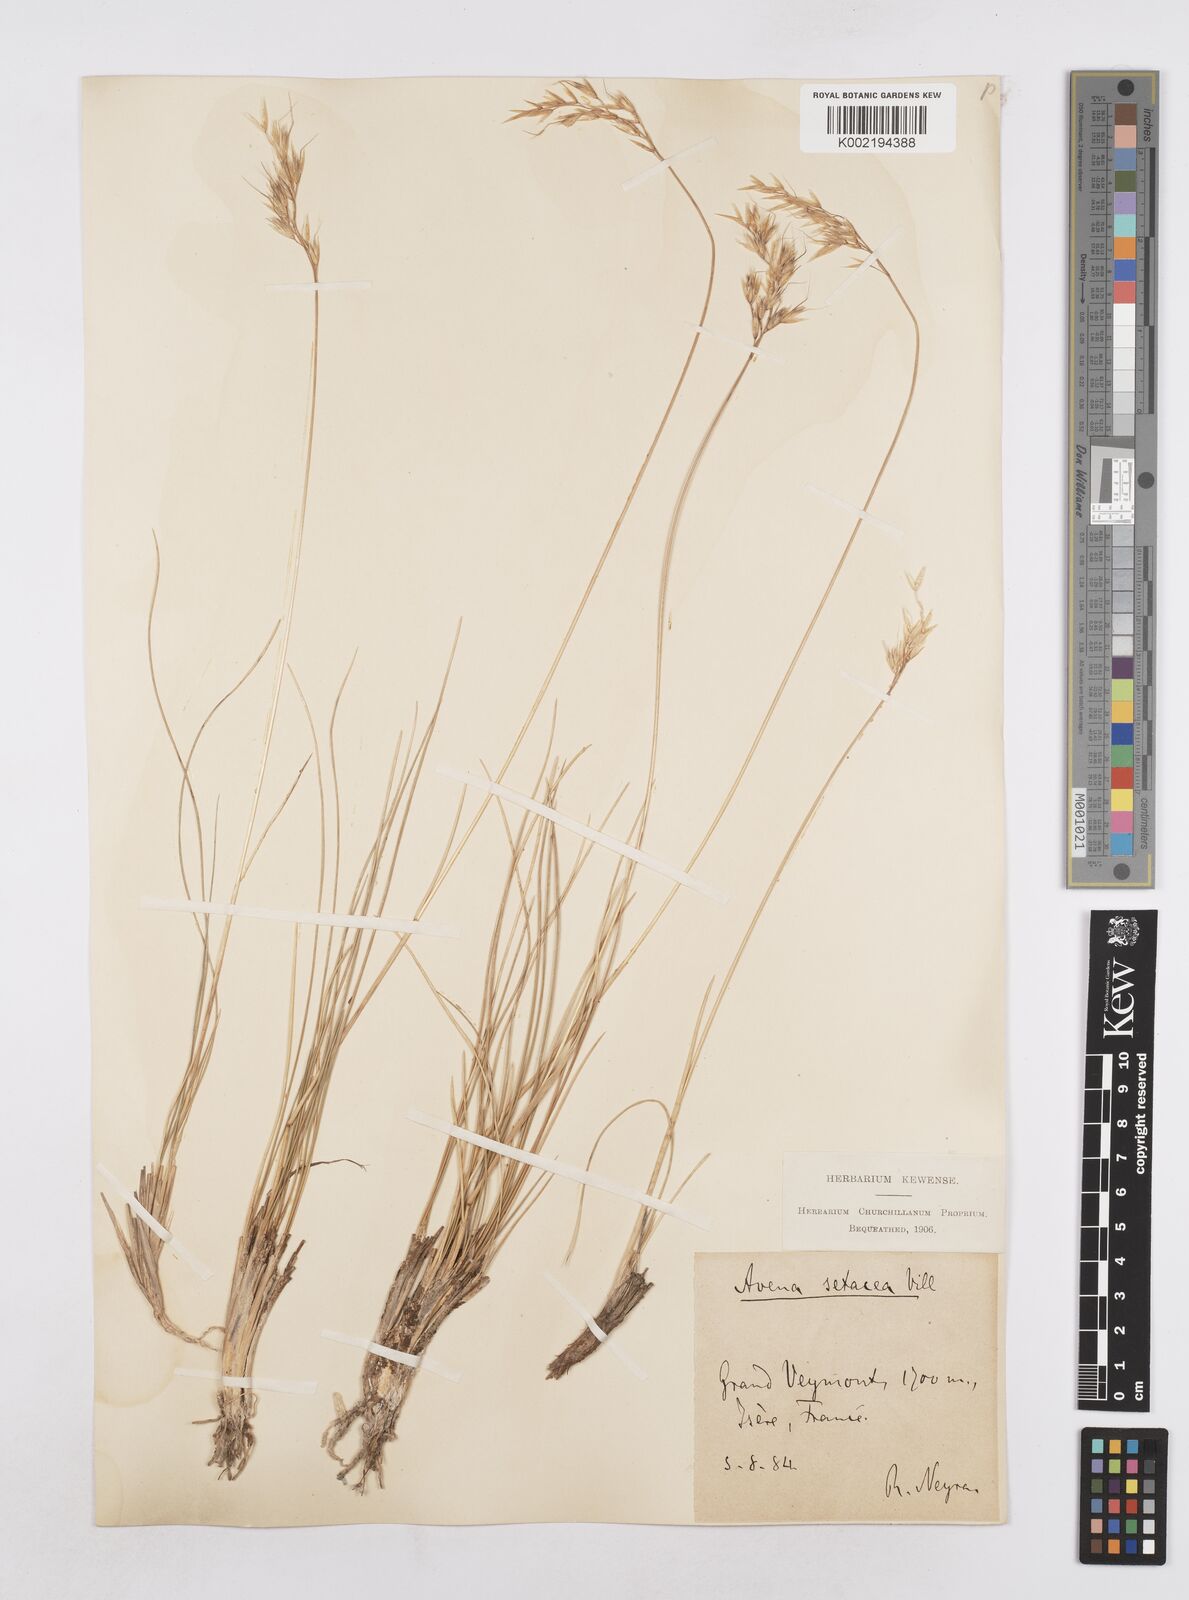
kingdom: Plantae
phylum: Tracheophyta
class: Liliopsida
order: Poales
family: Poaceae
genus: Helictotrichon
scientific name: Helictotrichon setaceum
